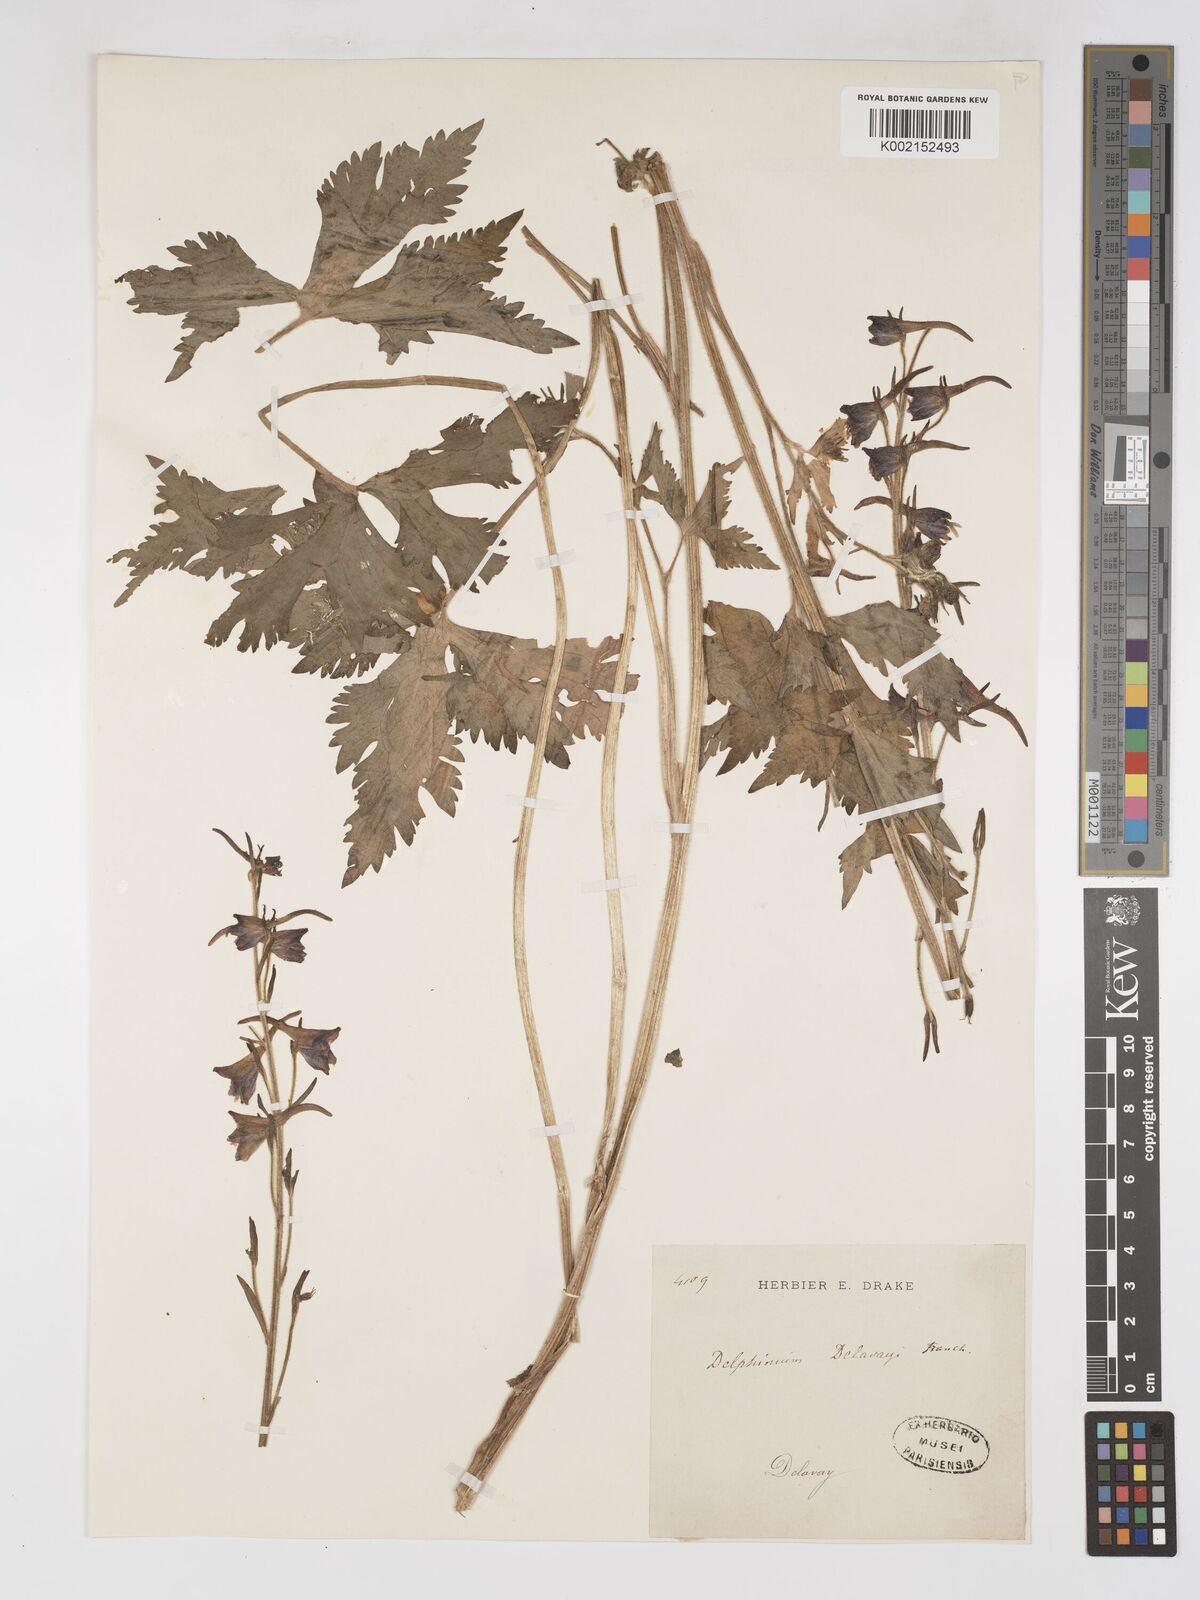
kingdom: Plantae
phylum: Tracheophyta
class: Magnoliopsida
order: Ranunculales
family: Ranunculaceae
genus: Delphinium
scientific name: Delphinium delavayi
